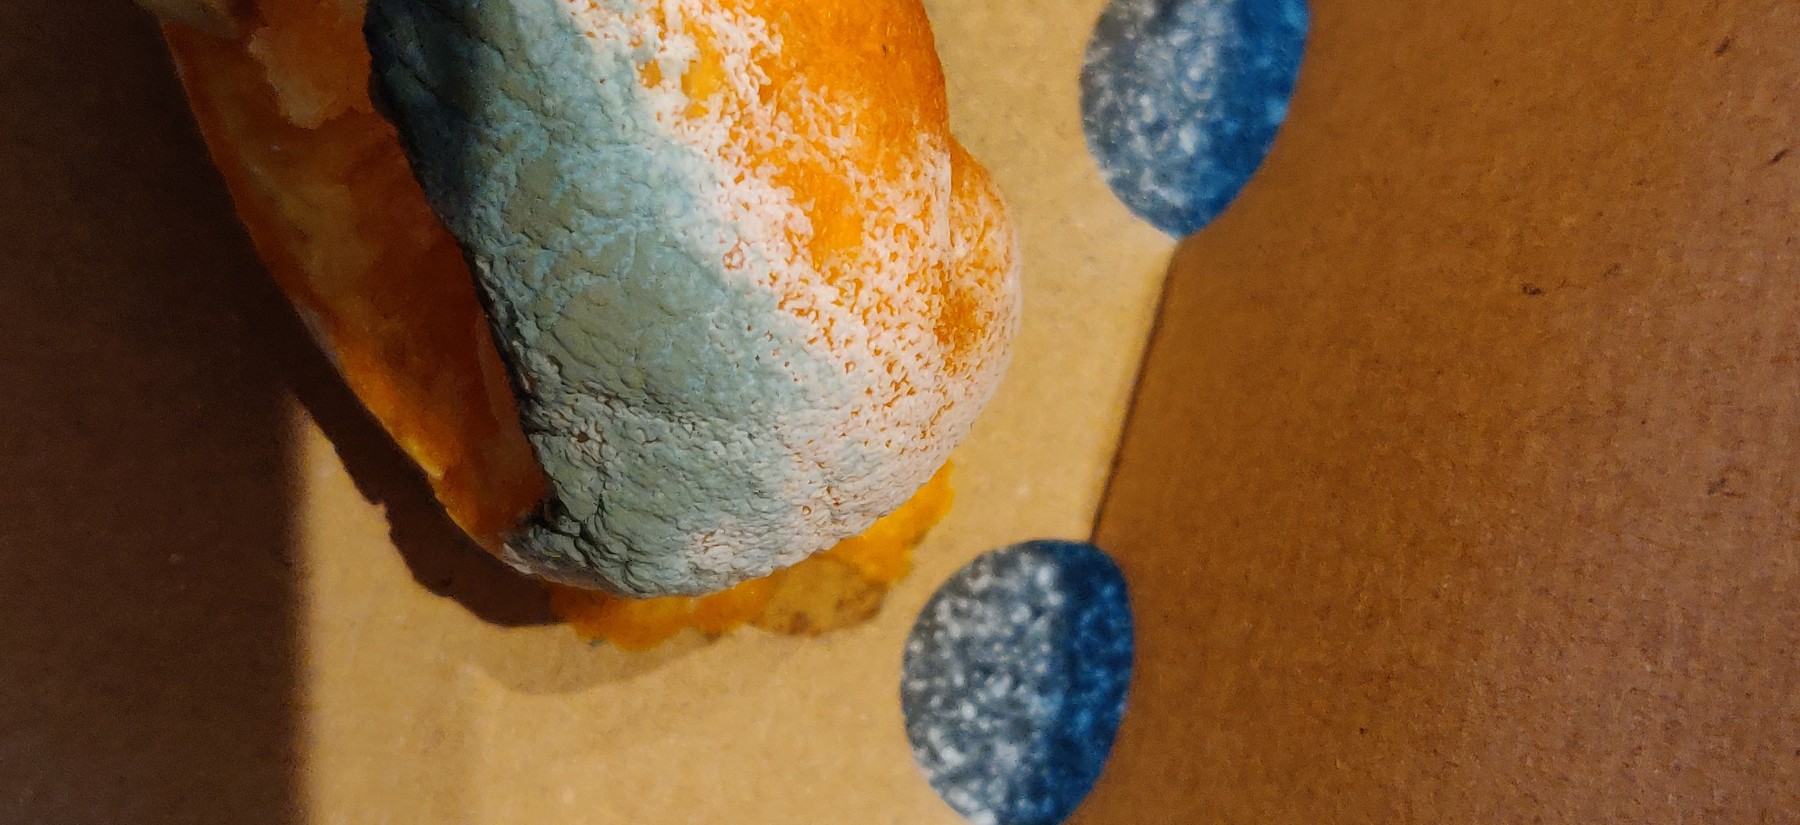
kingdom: Fungi
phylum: Ascomycota
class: Eurotiomycetes
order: Eurotiales
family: Aspergillaceae
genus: Penicillium
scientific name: Penicillium italicum
